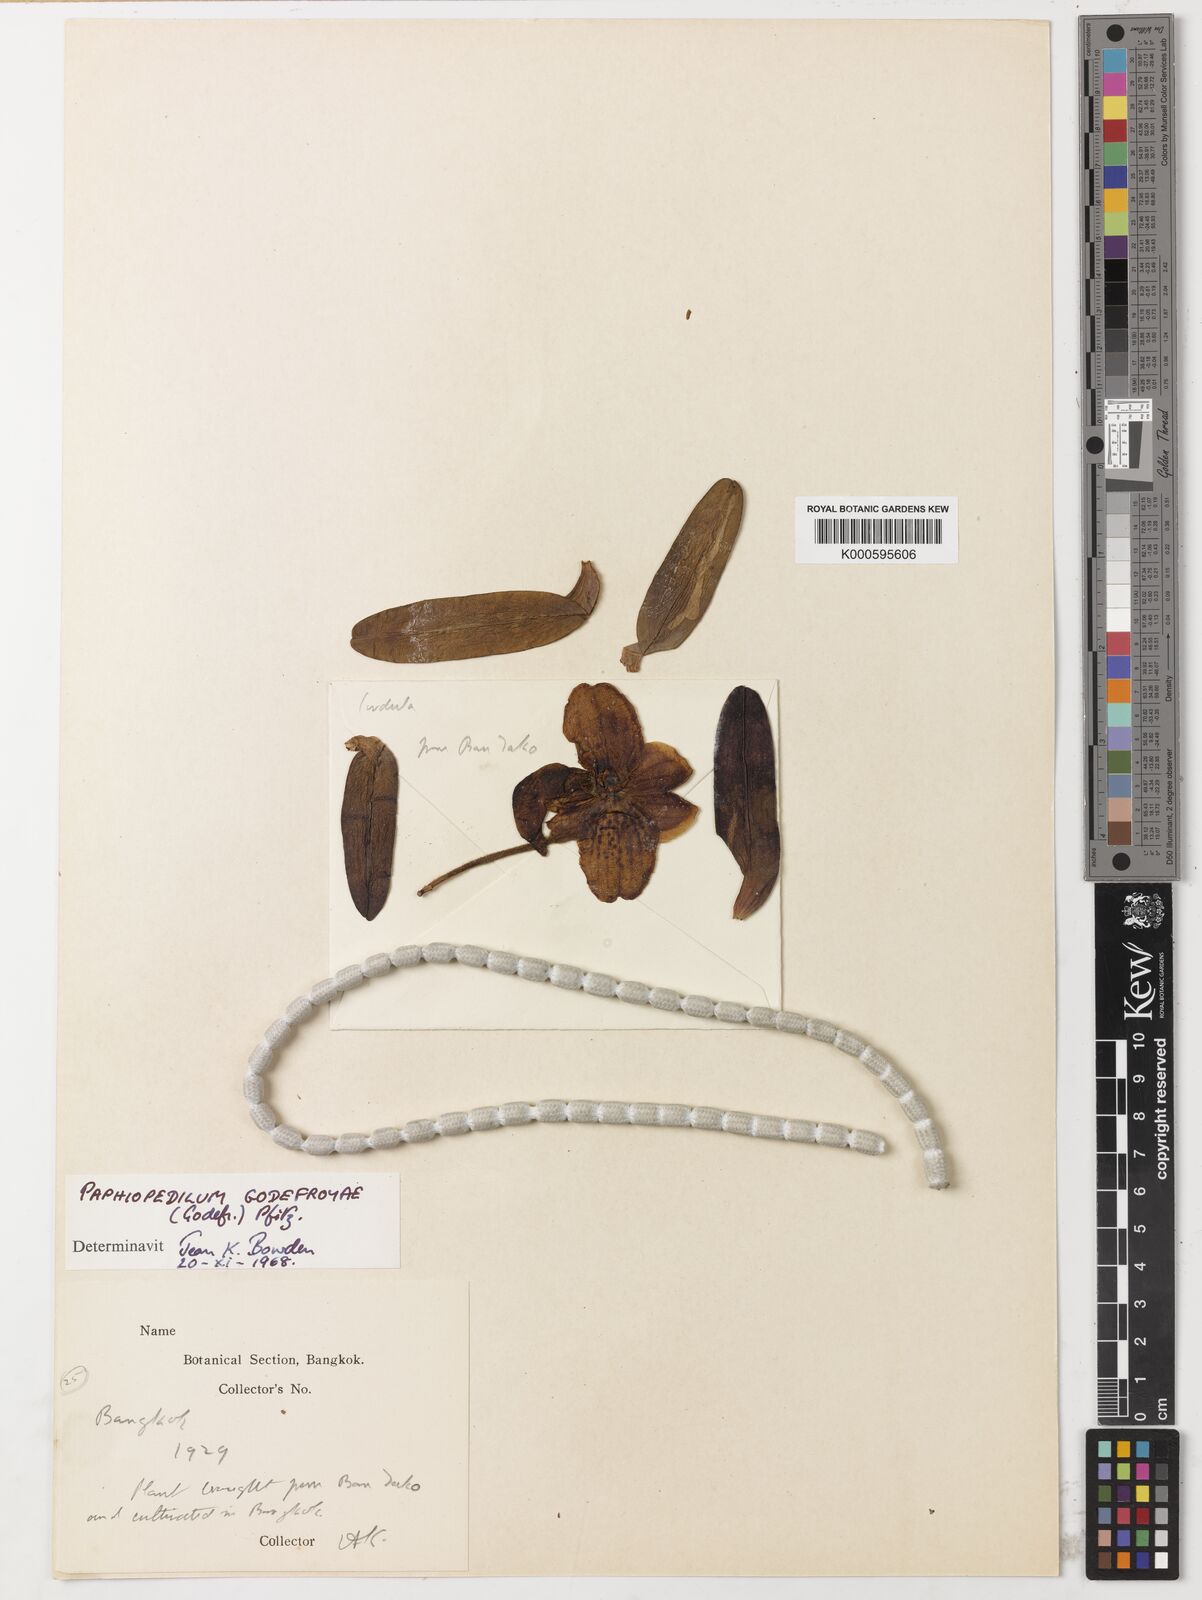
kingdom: Plantae
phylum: Tracheophyta
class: Liliopsida
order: Asparagales
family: Orchidaceae
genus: Paphiopedilum
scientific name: Paphiopedilum
